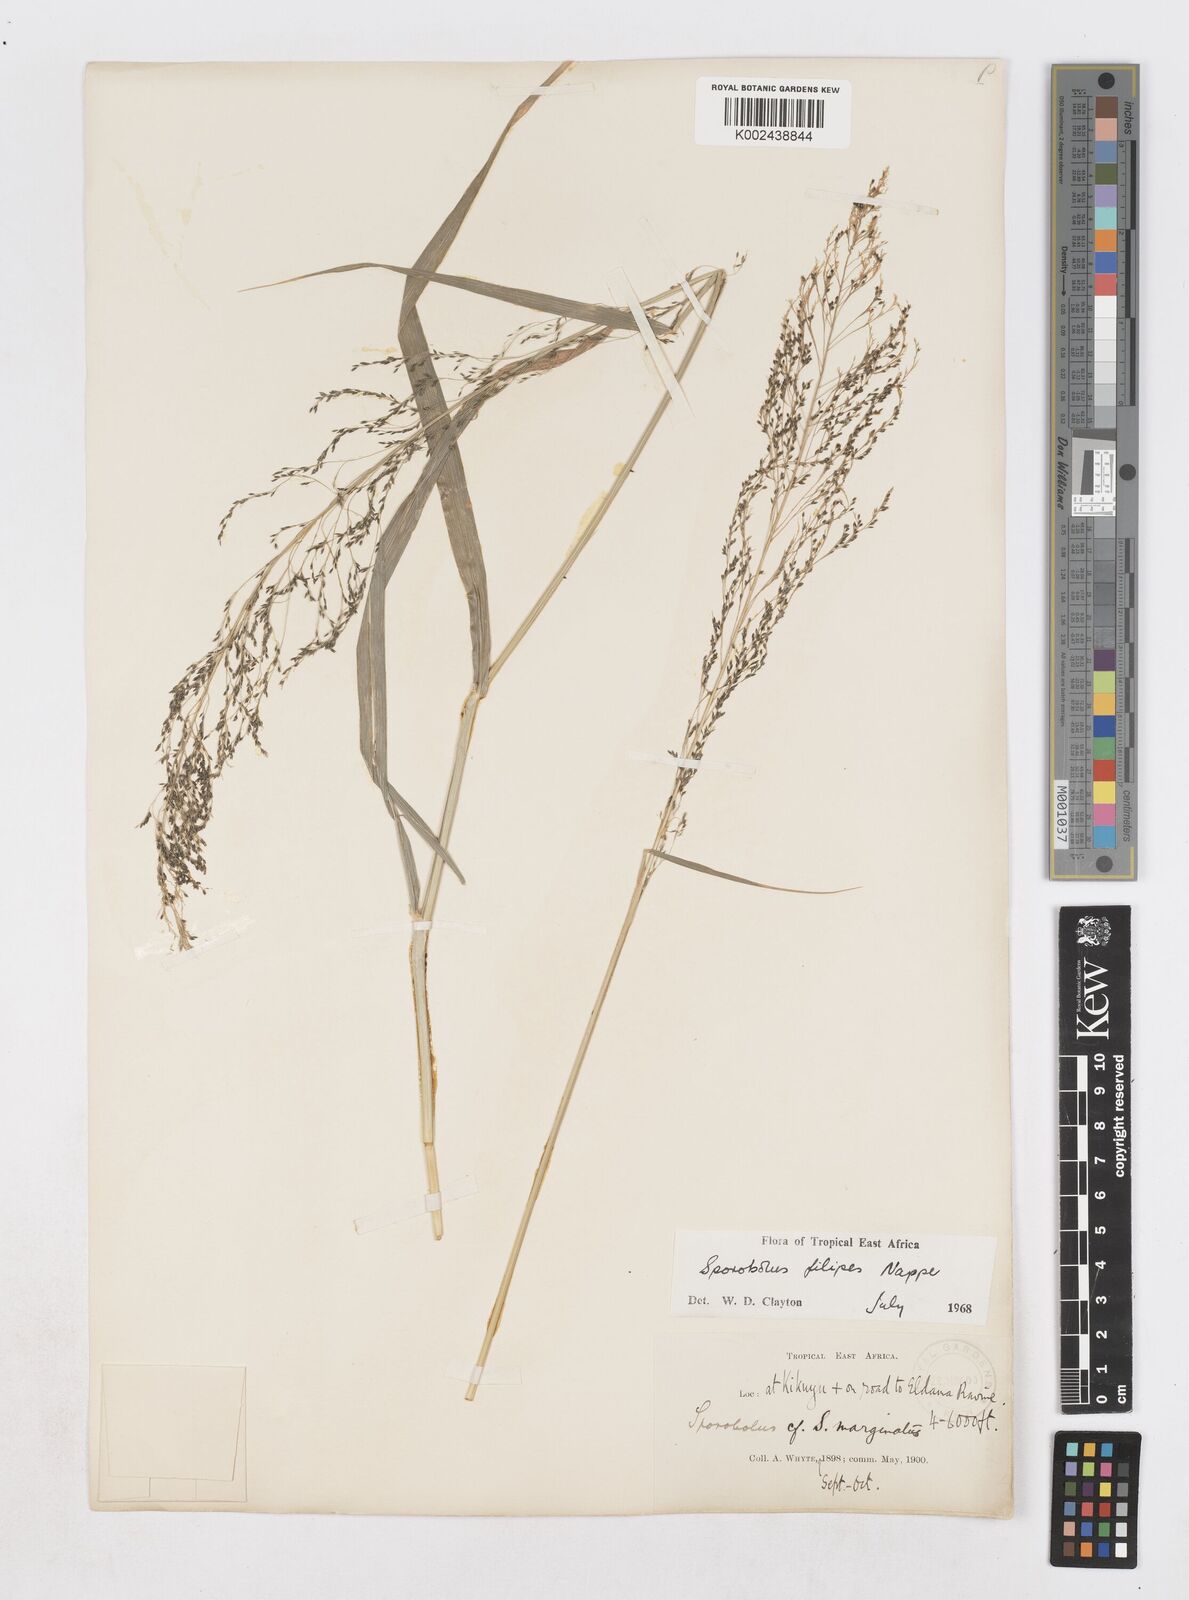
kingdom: Plantae
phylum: Tracheophyta
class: Liliopsida
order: Poales
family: Poaceae
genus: Sporobolus
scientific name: Sporobolus agrostoides
